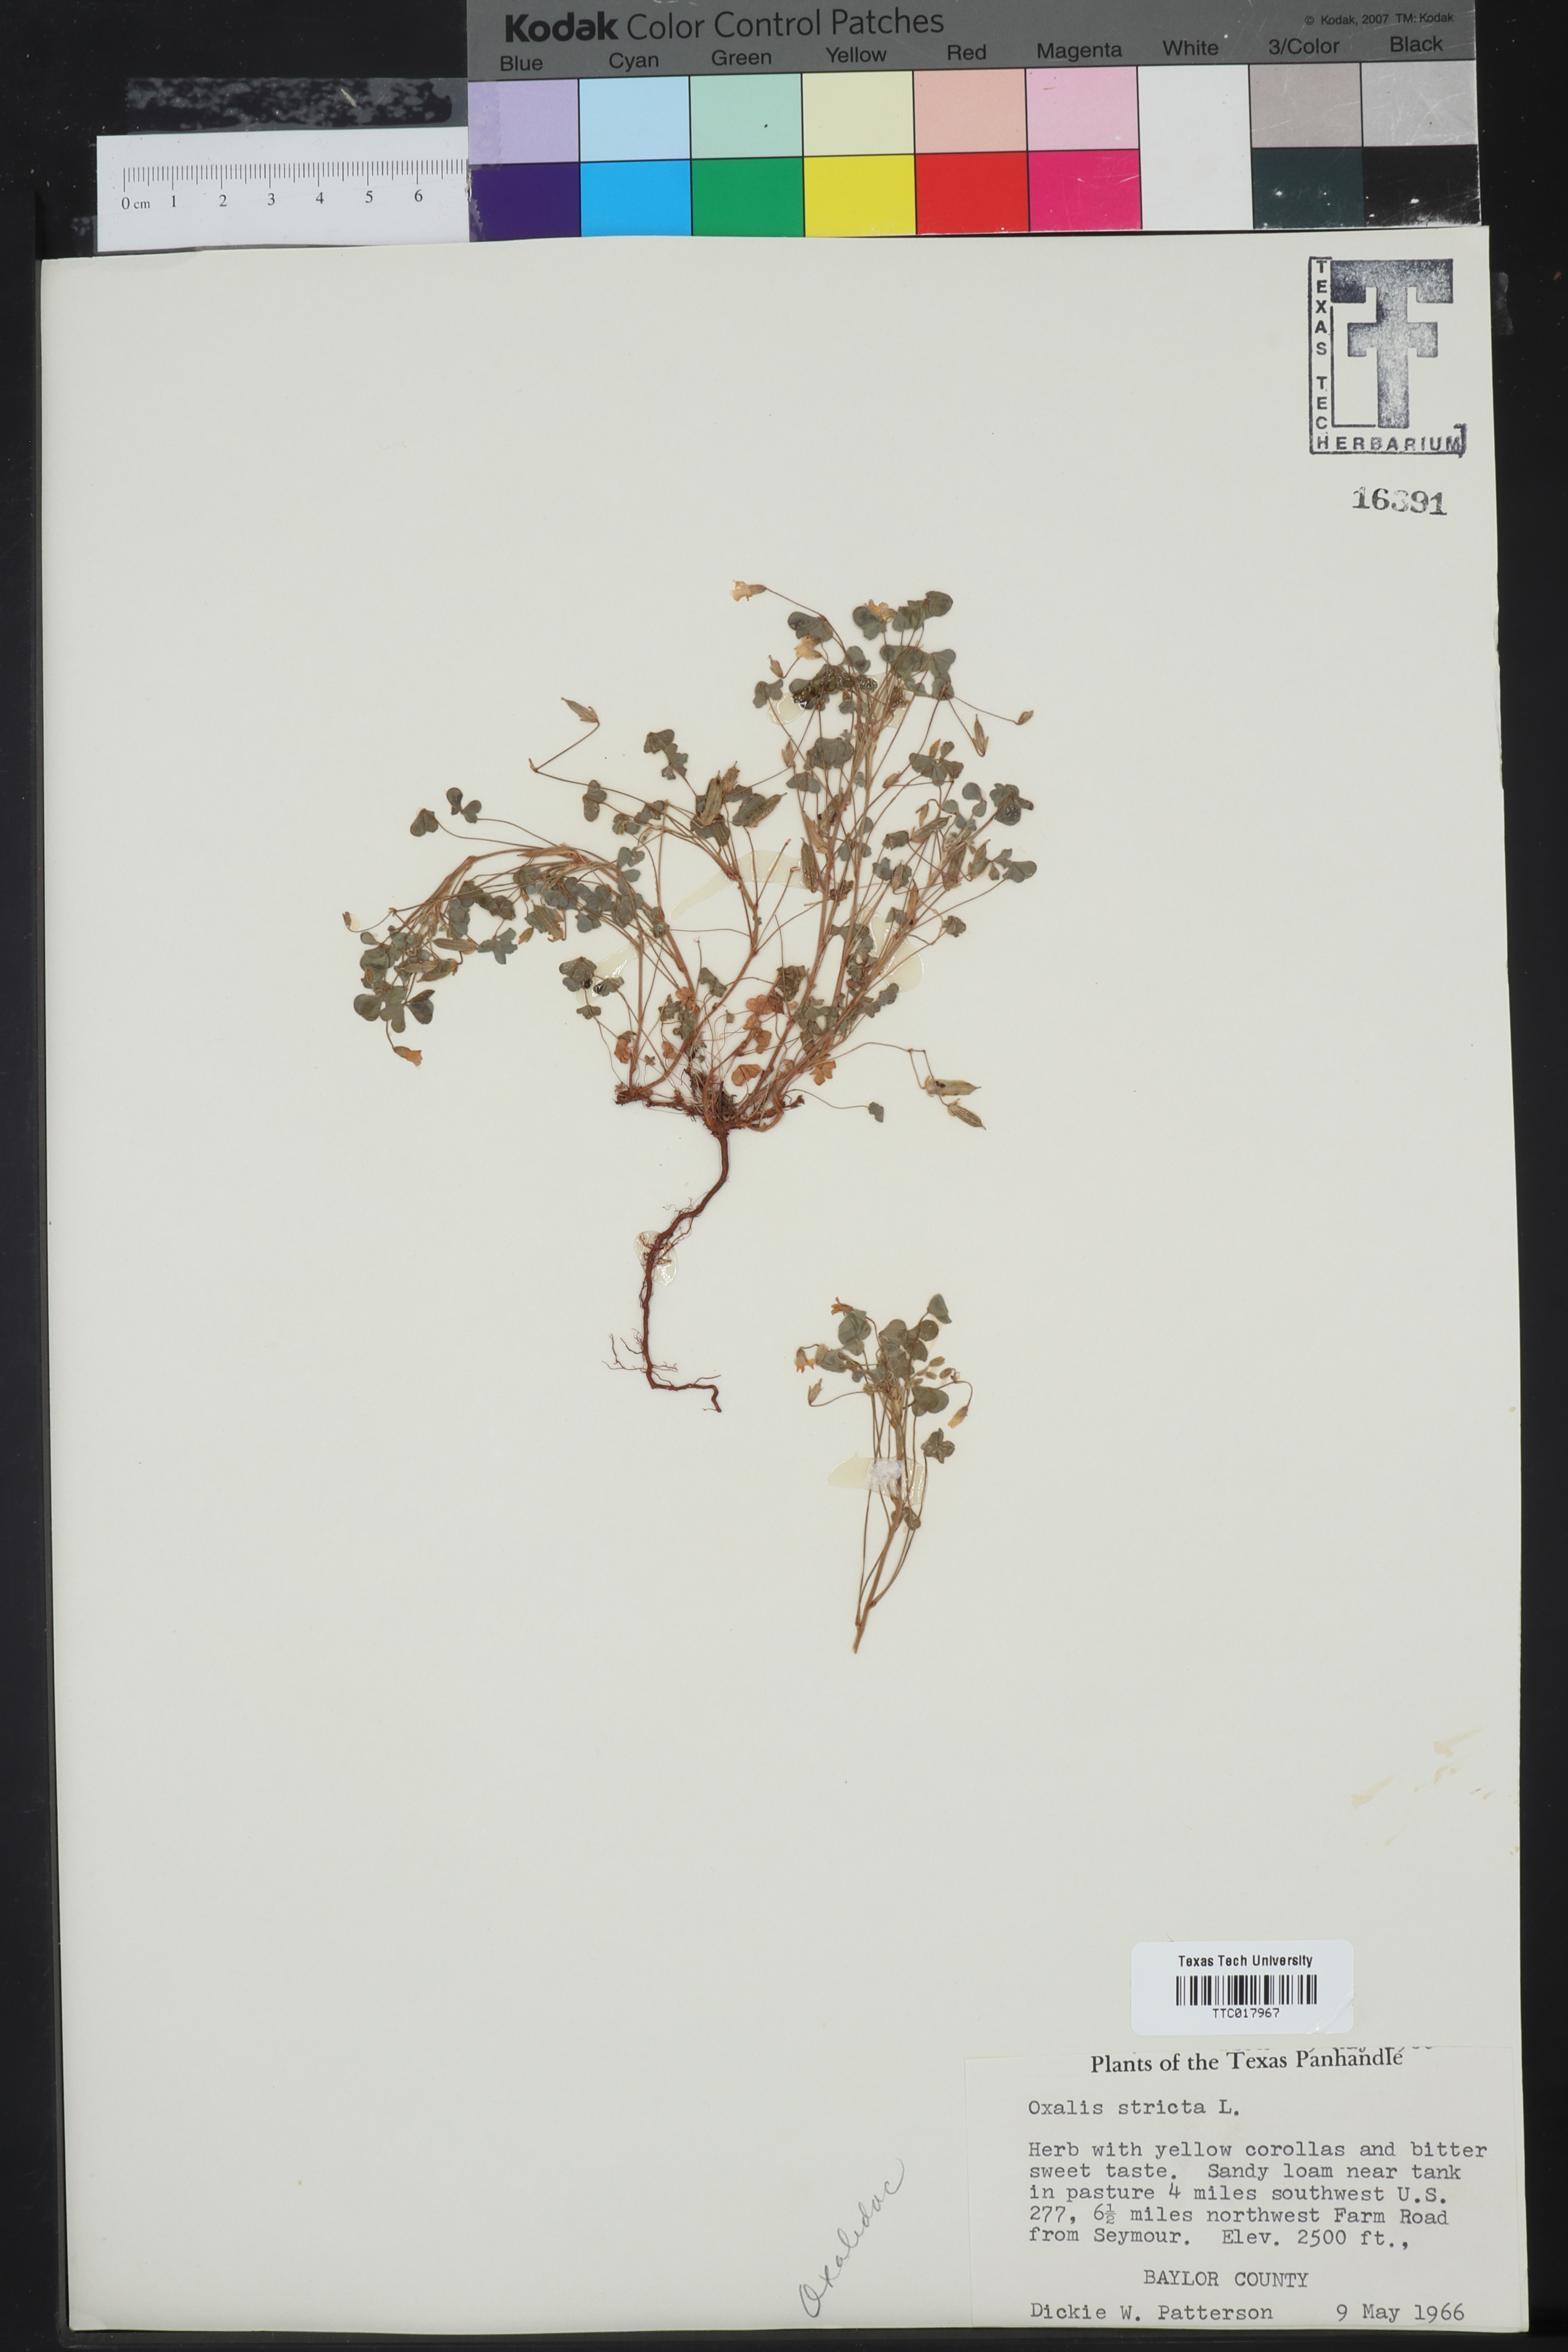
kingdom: Plantae
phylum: Tracheophyta
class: Magnoliopsida
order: Oxalidales
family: Oxalidaceae
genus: Oxalis
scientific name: Oxalis stricta
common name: Upright yellow-sorrel
